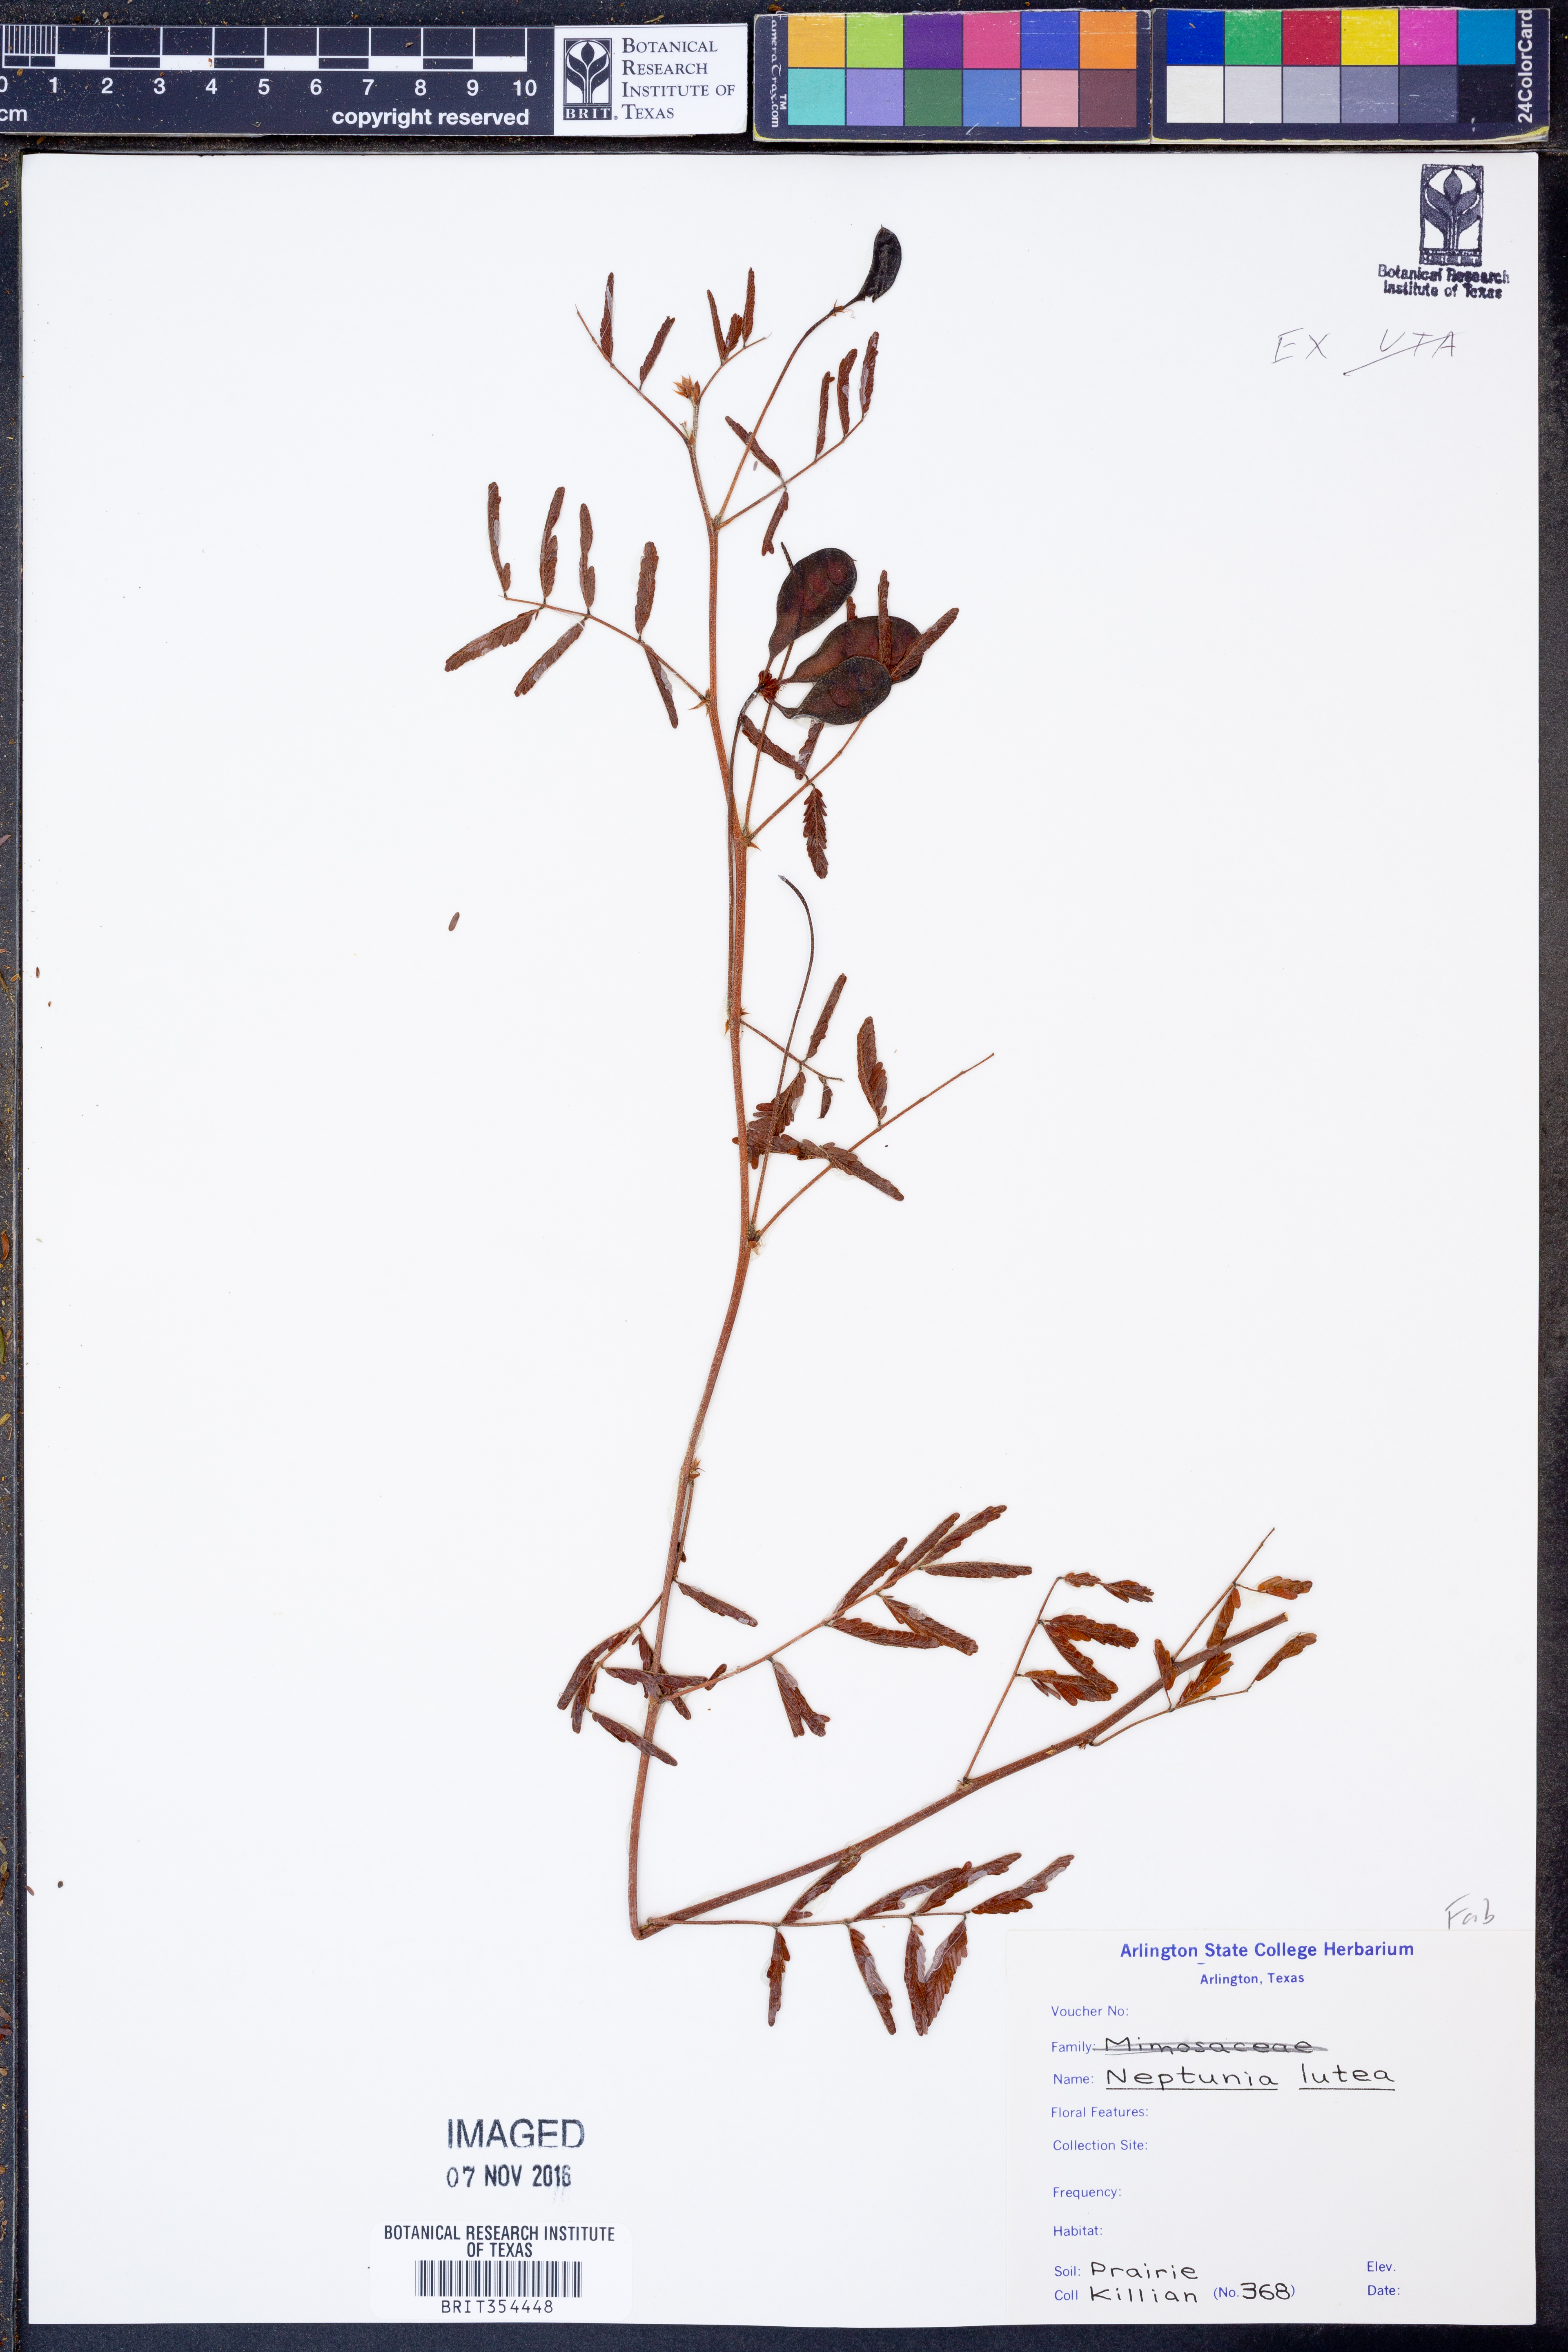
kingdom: Plantae
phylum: Tracheophyta
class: Magnoliopsida
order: Fabales
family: Fabaceae
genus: Neptunia
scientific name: Neptunia lutea
